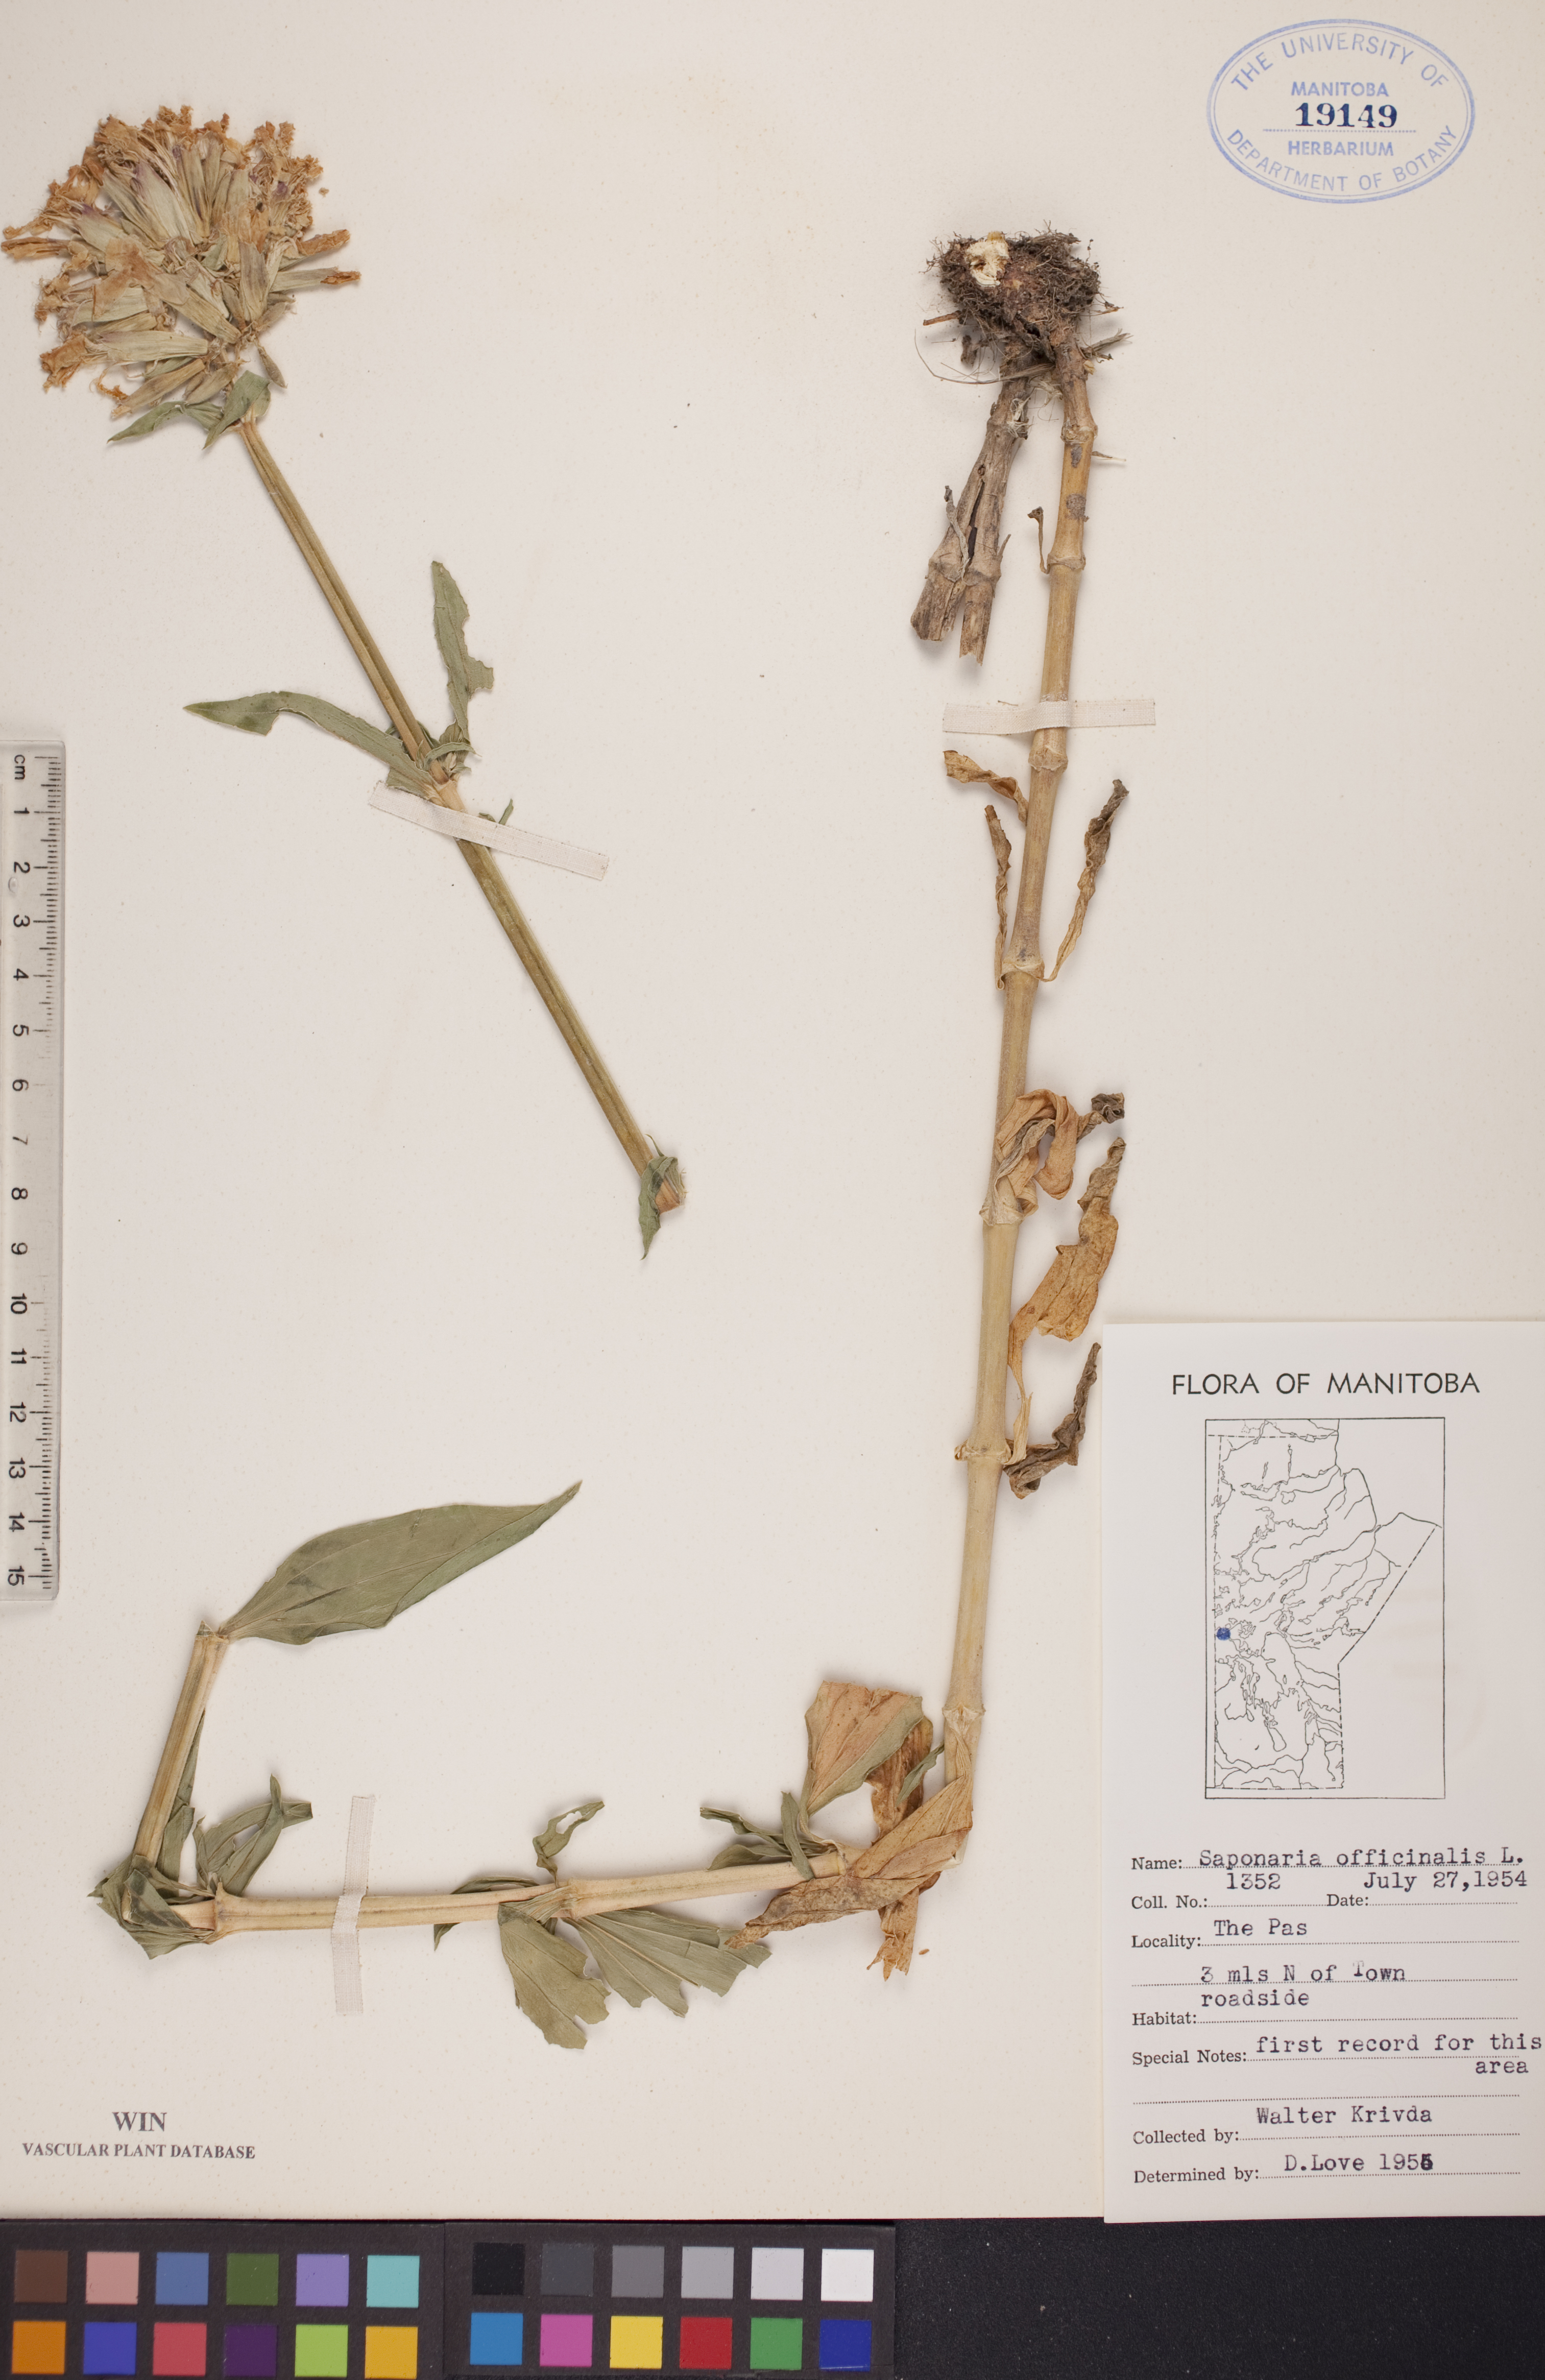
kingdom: Plantae
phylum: Tracheophyta
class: Magnoliopsida
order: Caryophyllales
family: Caryophyllaceae
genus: Saponaria
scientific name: Saponaria officinalis
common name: Soapwort
